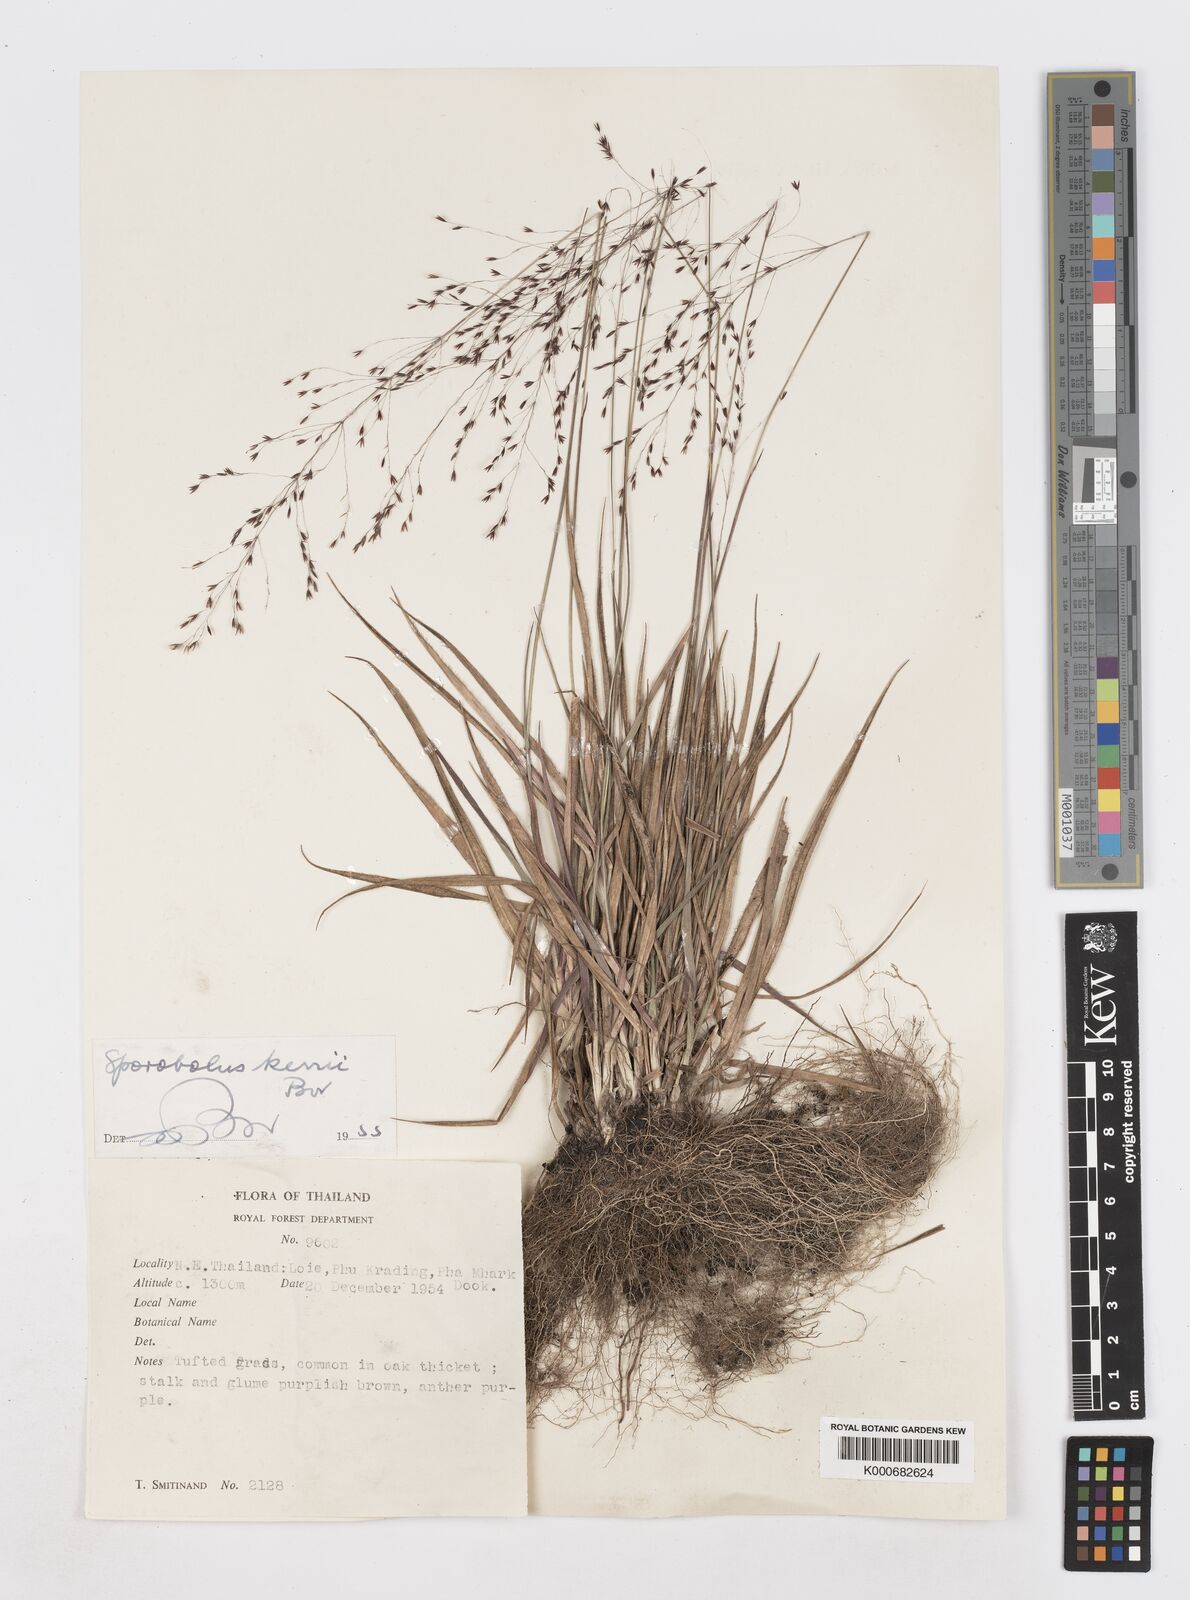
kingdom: Plantae
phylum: Tracheophyta
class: Liliopsida
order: Poales
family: Poaceae
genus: Sporobolus
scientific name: Sporobolus kerrii
